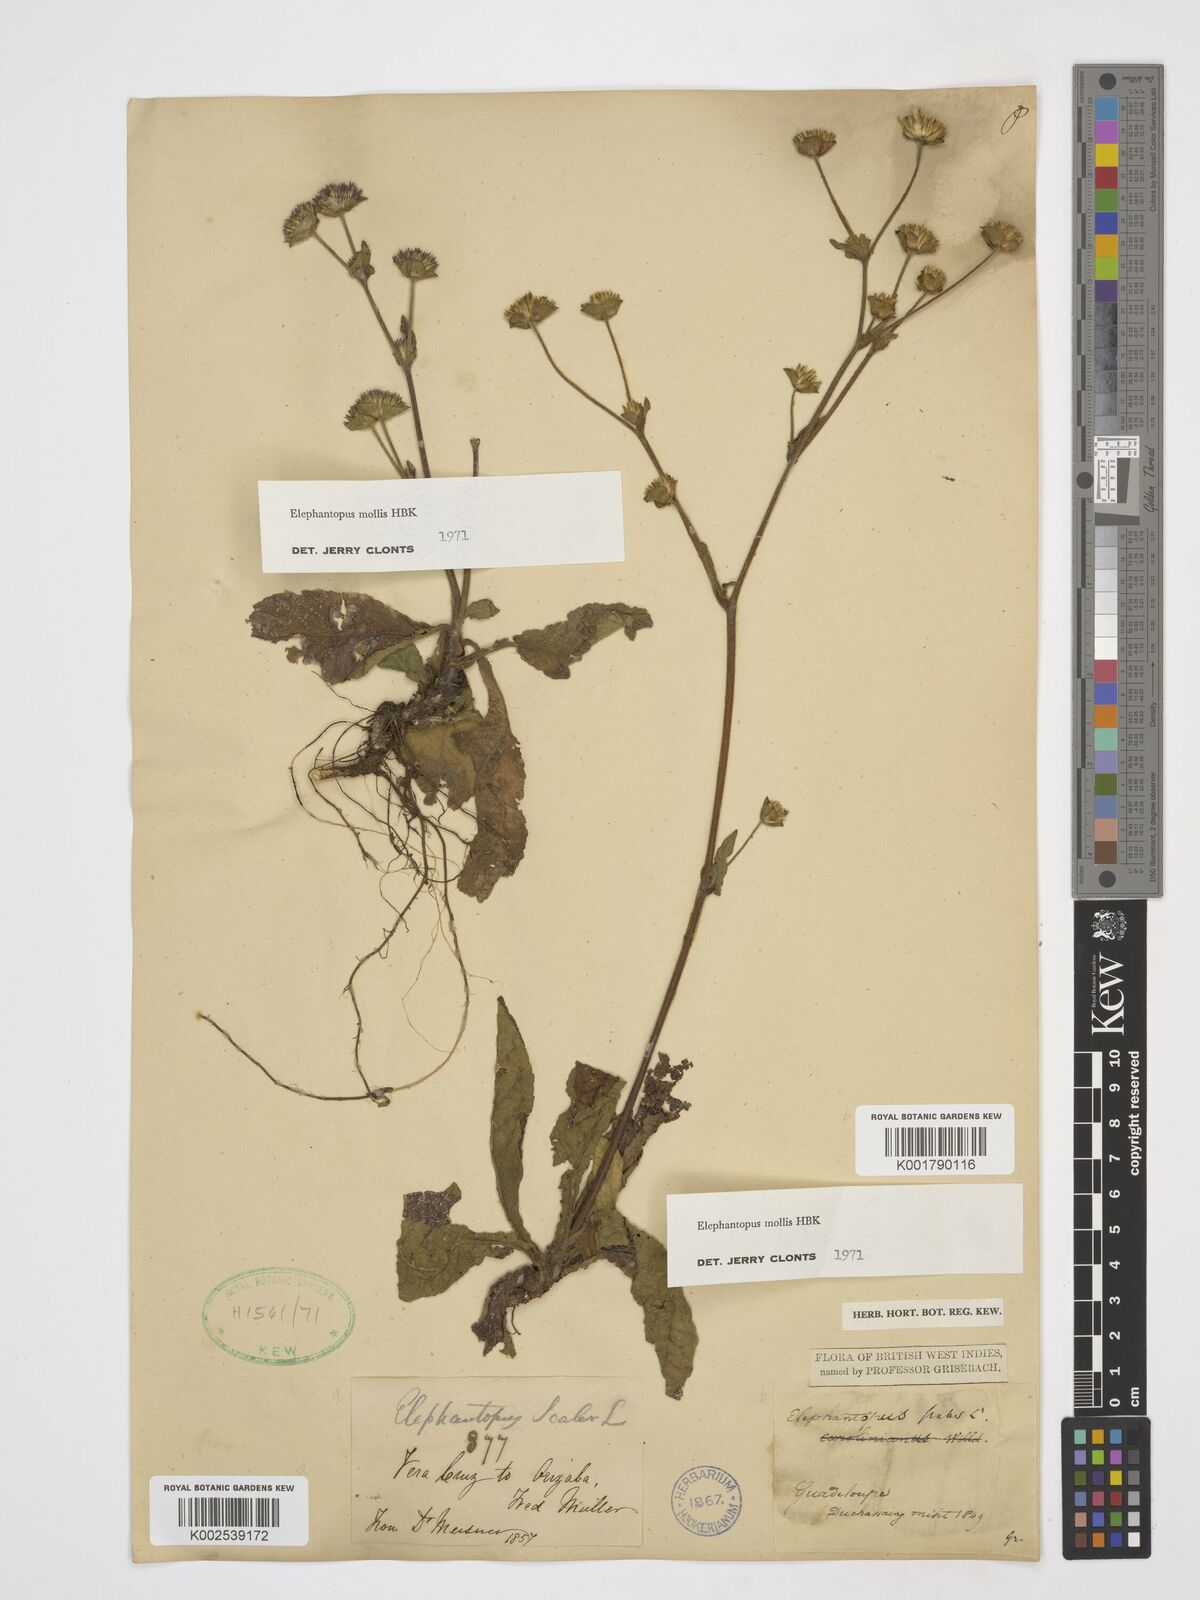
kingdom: Plantae
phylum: Tracheophyta
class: Magnoliopsida
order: Asterales
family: Asteraceae
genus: Elephantopus
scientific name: Elephantopus mollis
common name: Soft elephantsfoot
